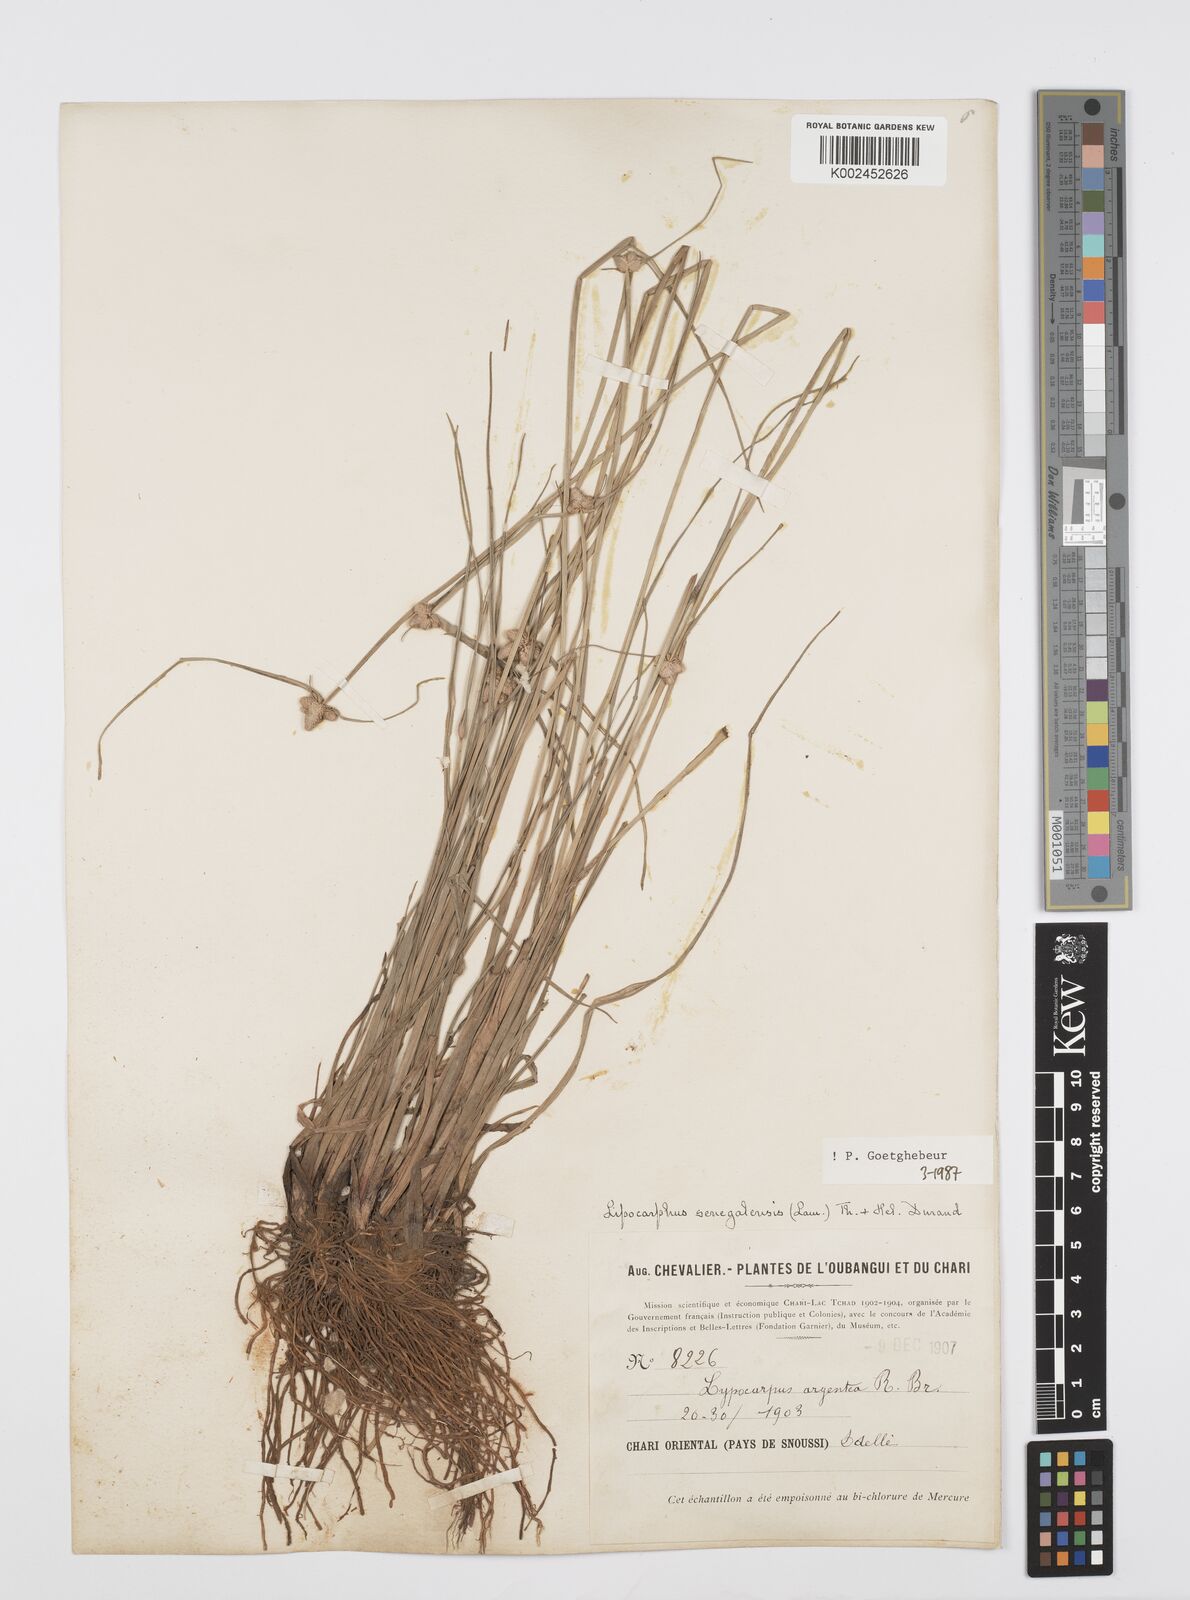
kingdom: Plantae
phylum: Tracheophyta
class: Liliopsida
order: Poales
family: Cyperaceae
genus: Cyperus
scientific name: Cyperus albescens
